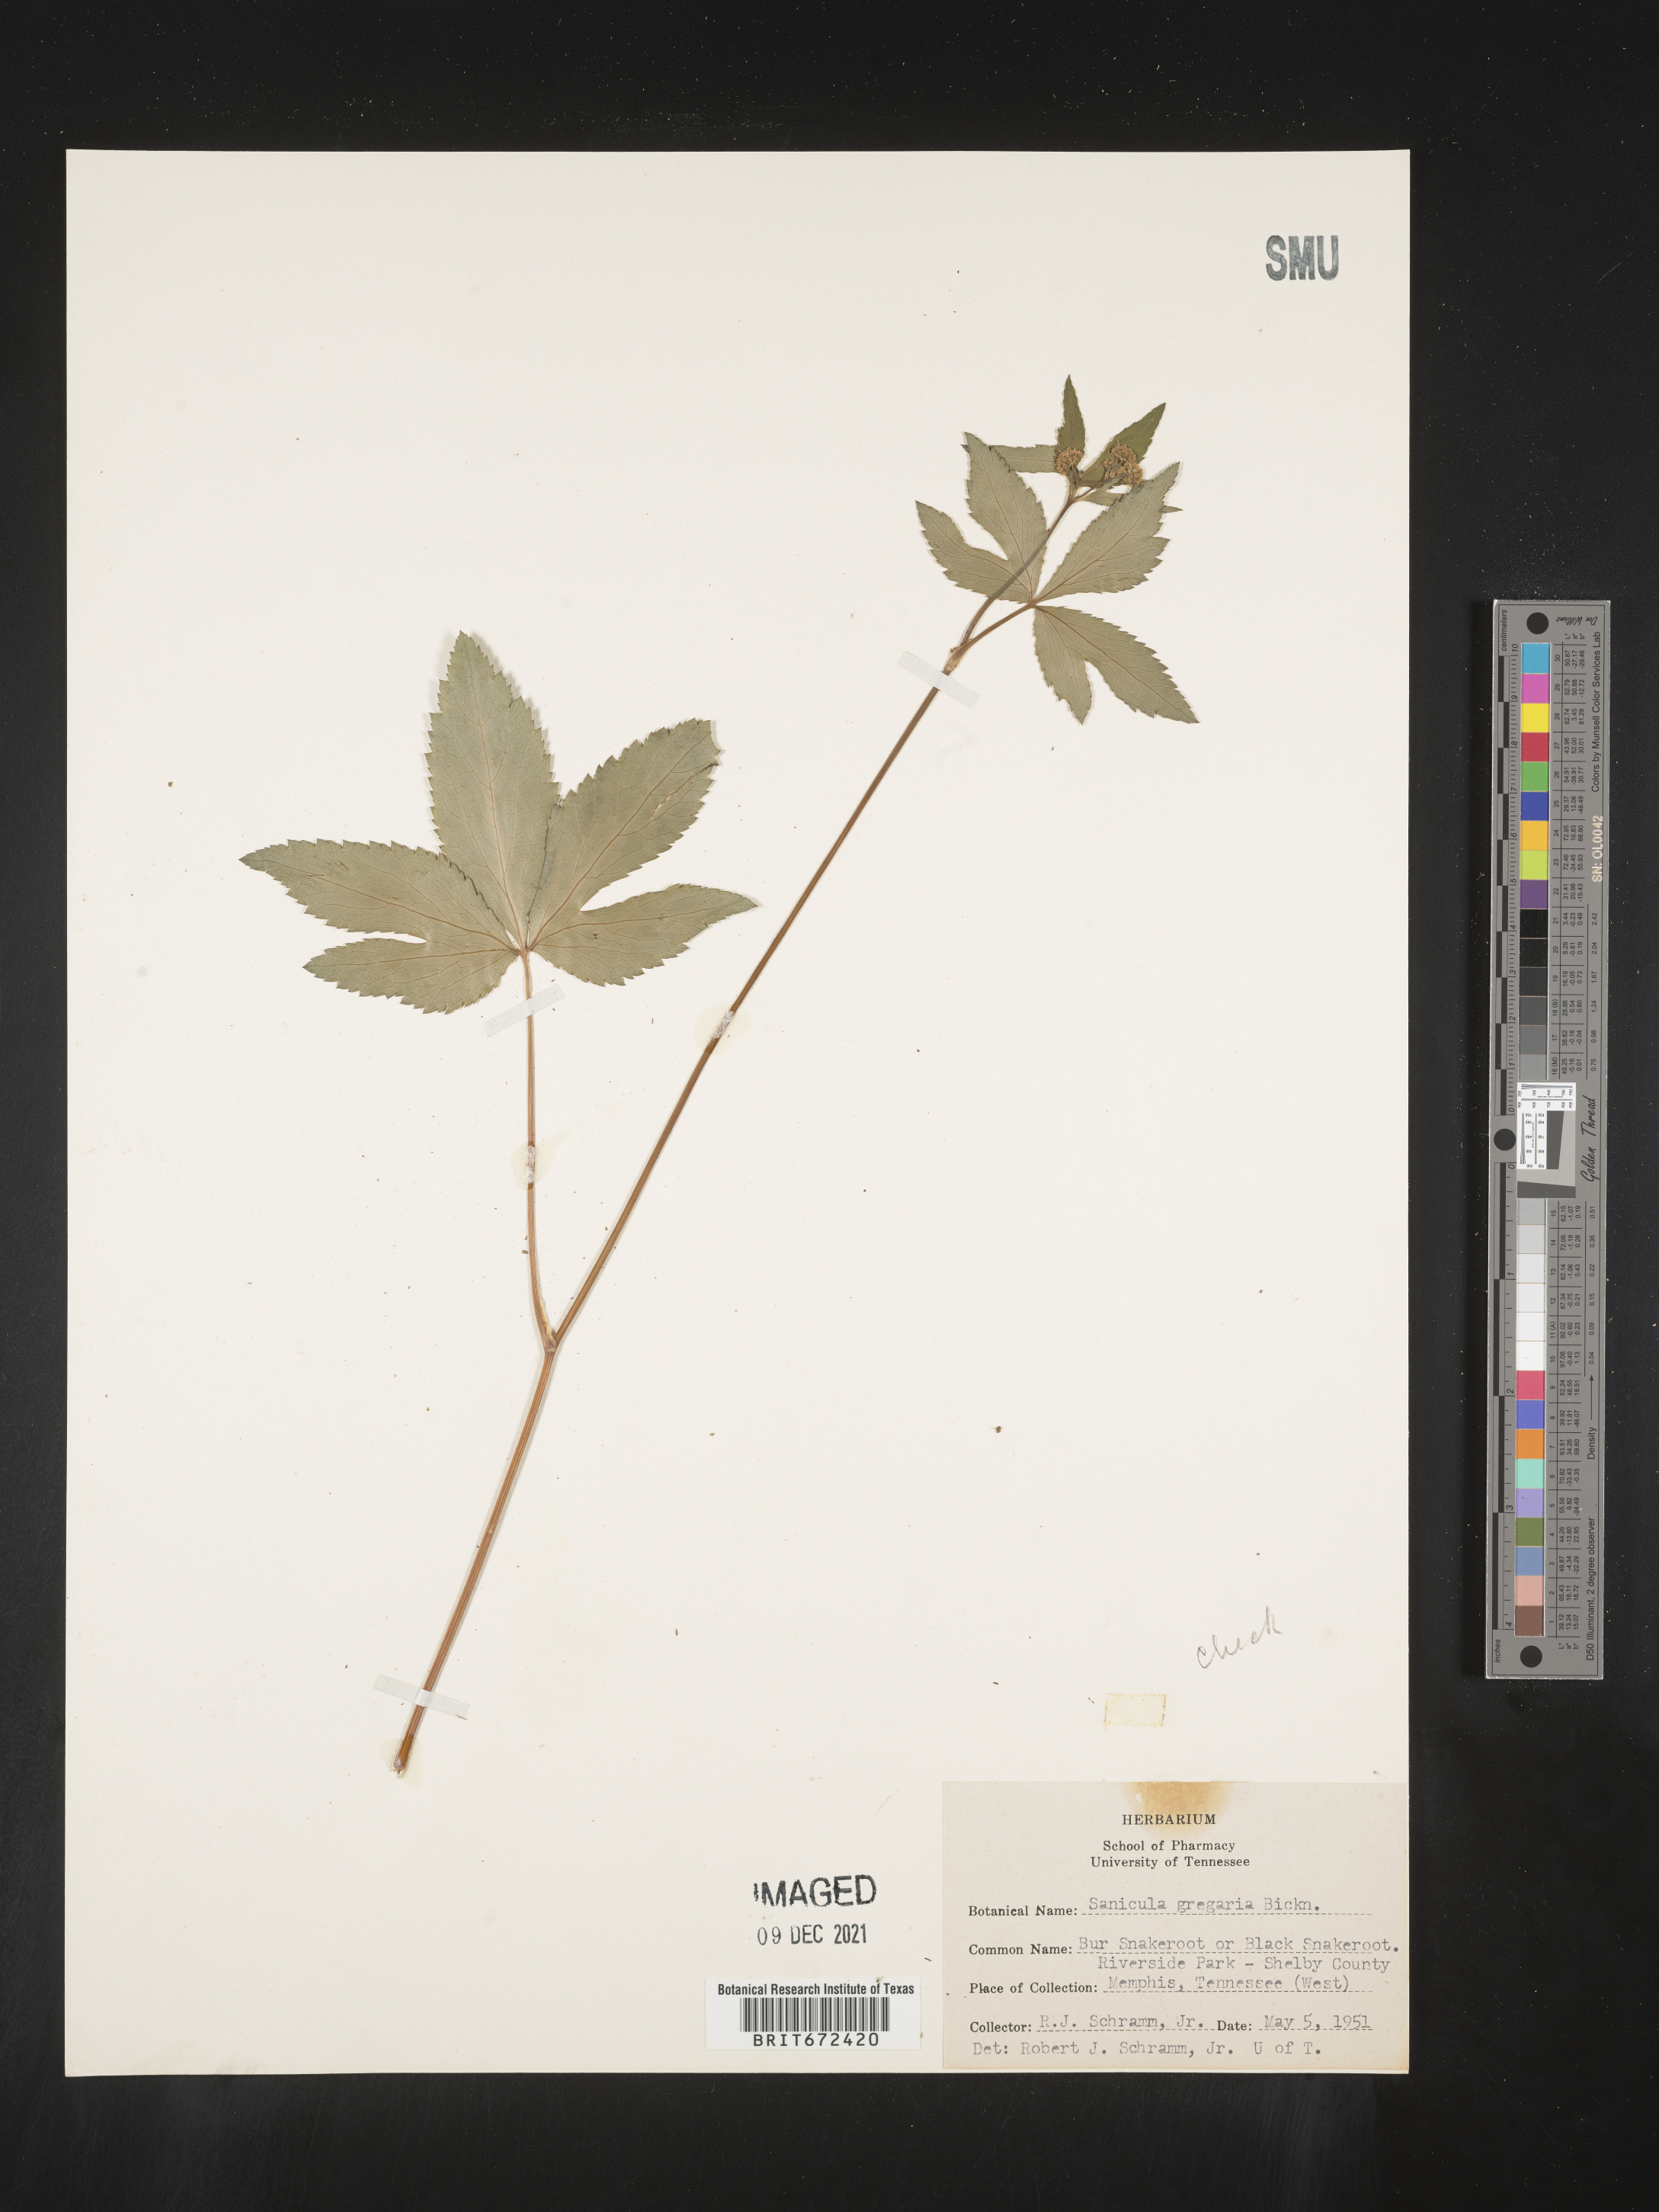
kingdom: Plantae
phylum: Tracheophyta
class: Magnoliopsida
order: Apiales
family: Apiaceae
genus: Sanicula
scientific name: Sanicula odorata
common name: Cluster sanicle
